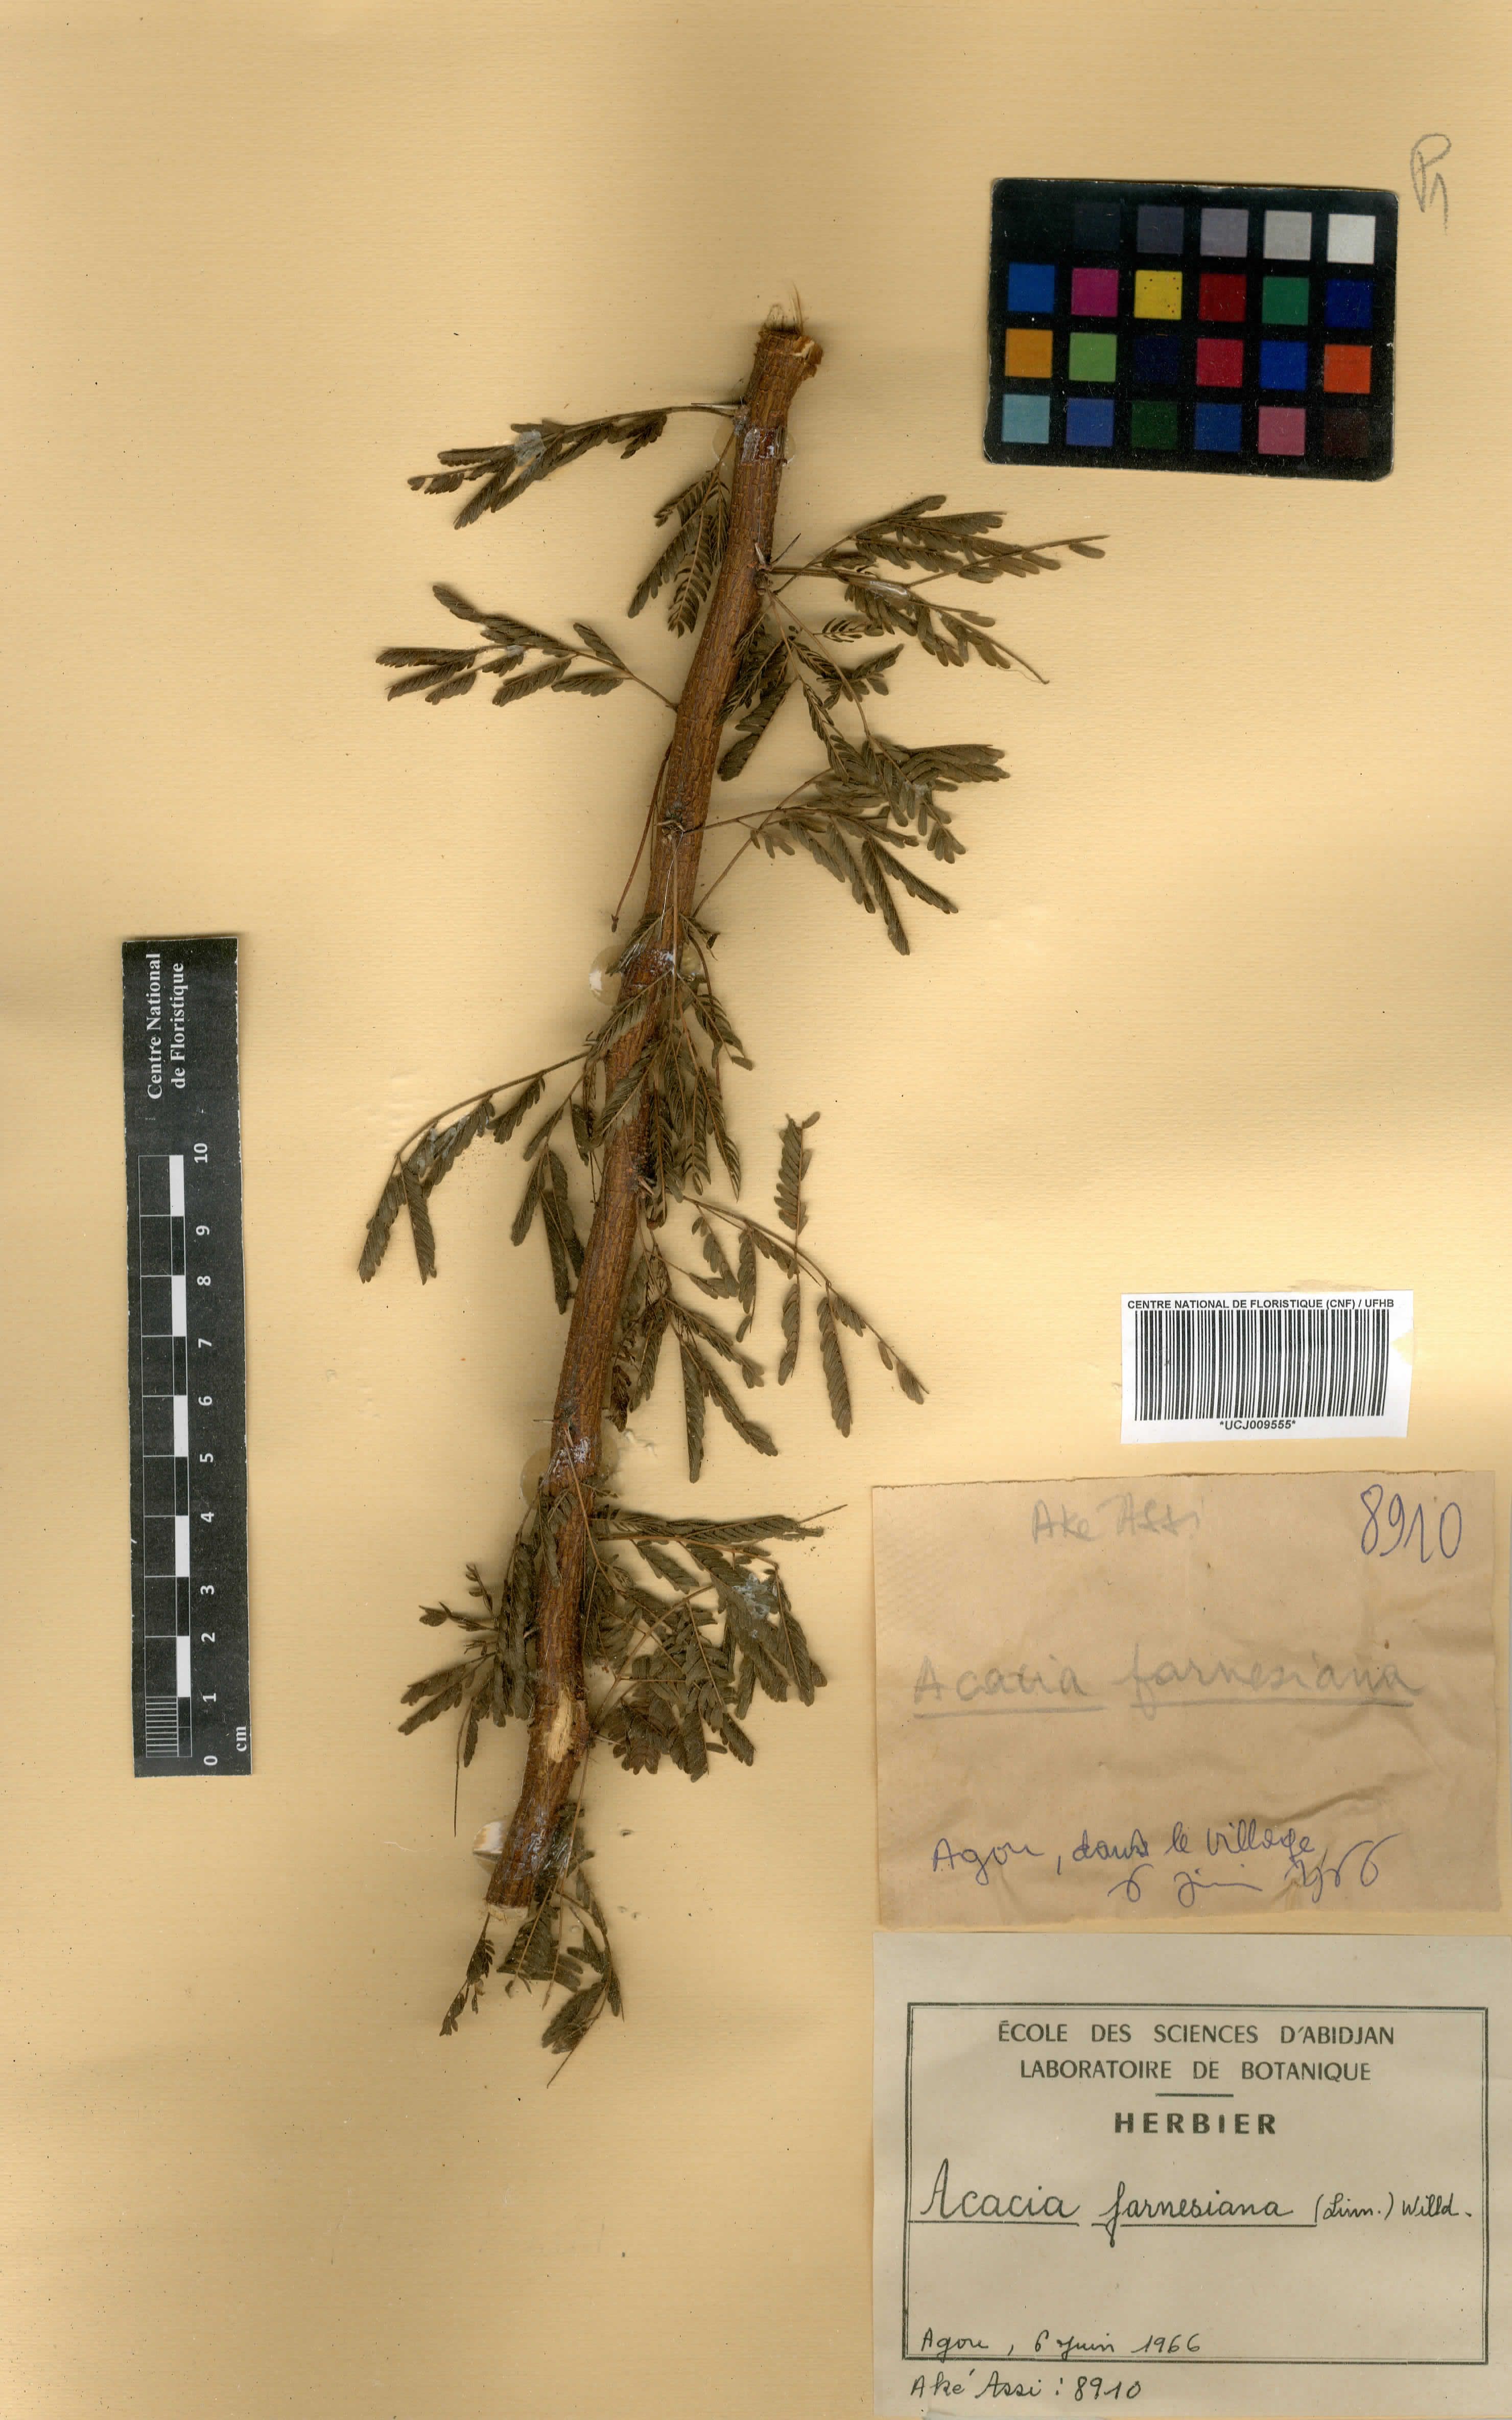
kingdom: Plantae
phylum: Tracheophyta
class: Magnoliopsida
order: Fabales
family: Fabaceae
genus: Vachellia
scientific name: Vachellia farnesiana
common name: Sweet acacia
